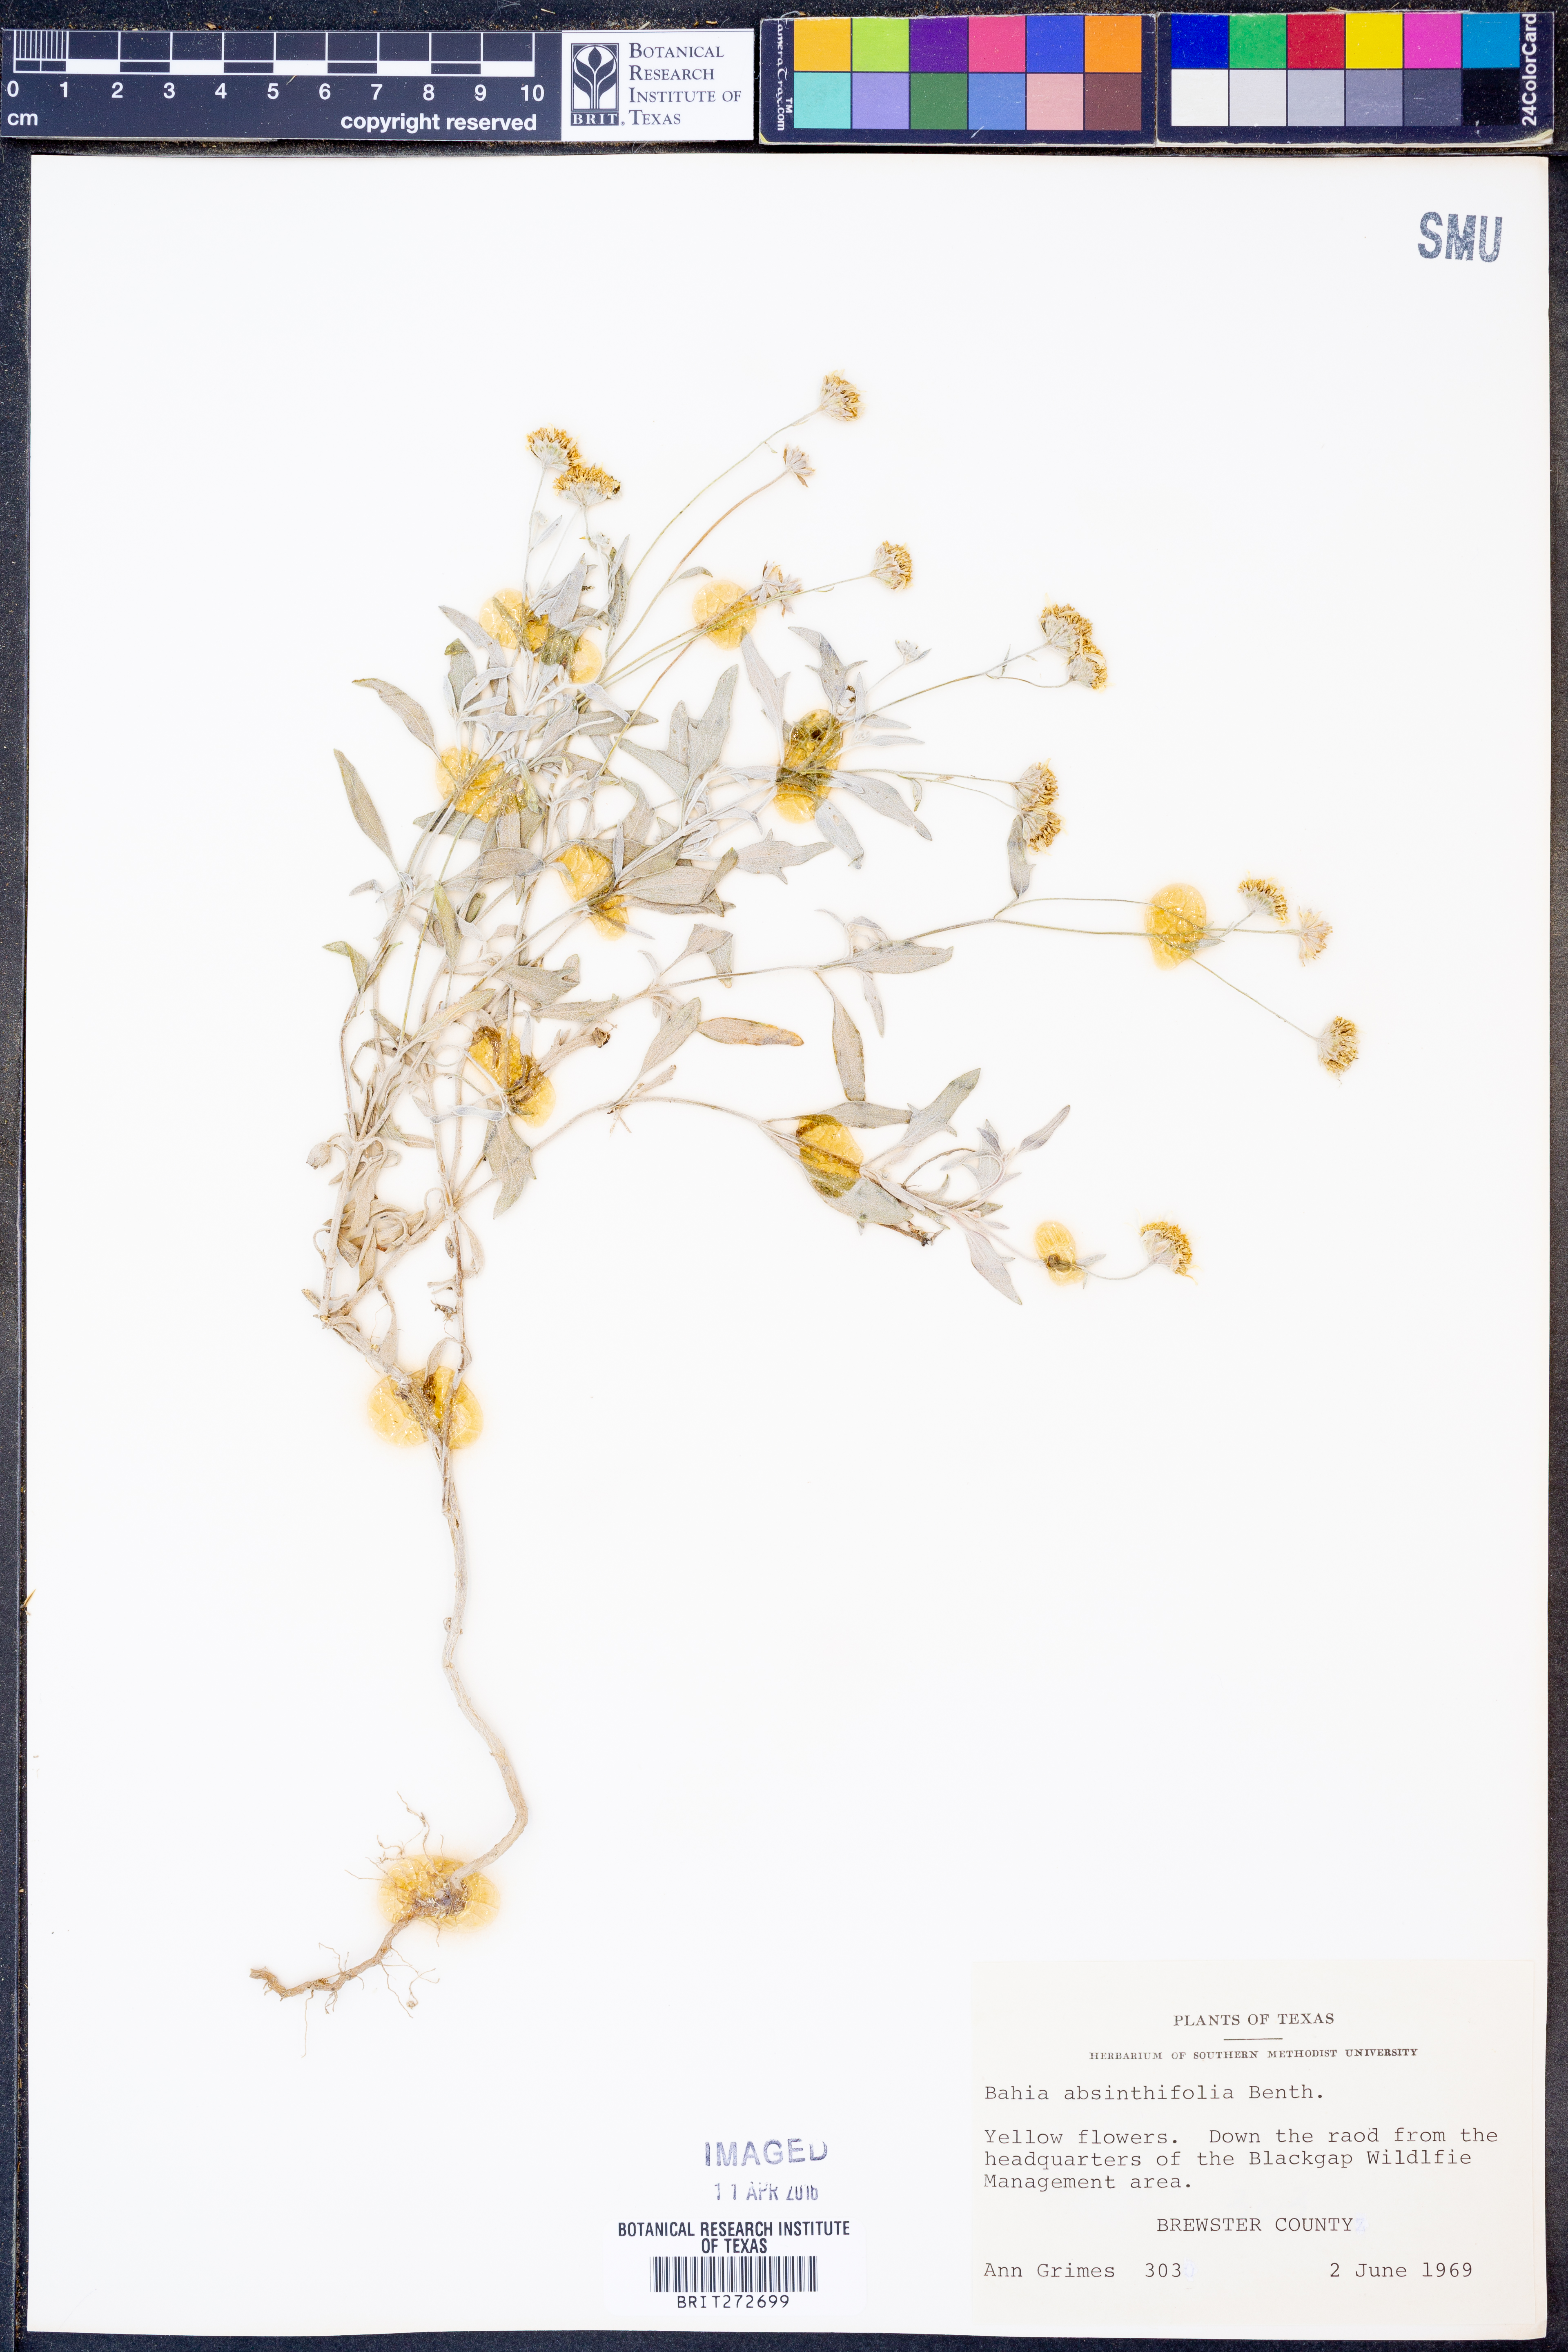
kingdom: Plantae
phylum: Tracheophyta
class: Magnoliopsida
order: Asterales
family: Asteraceae
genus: Picradeniopsis
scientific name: Picradeniopsis absinthifolia
